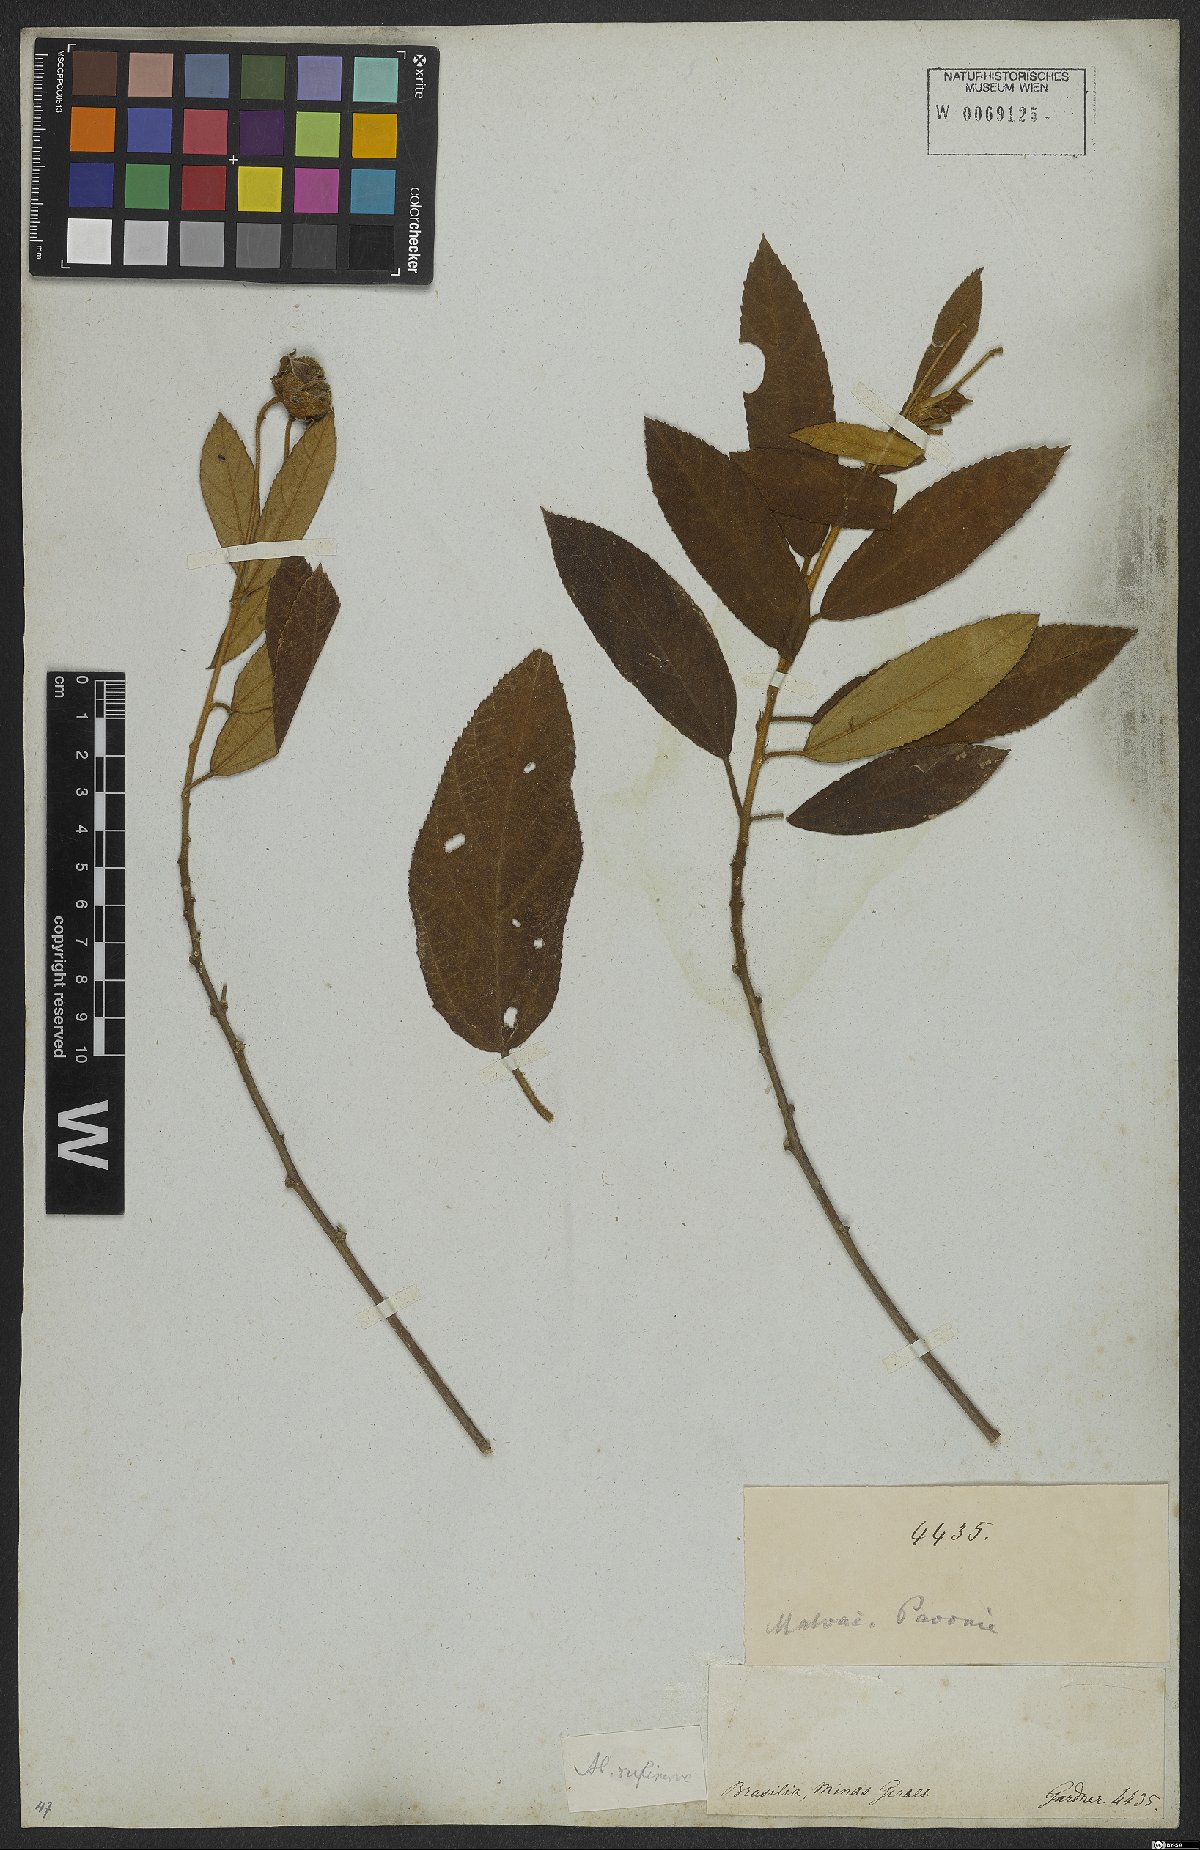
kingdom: Plantae
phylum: Tracheophyta
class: Magnoliopsida
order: Malvales
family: Malvaceae
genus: Callianthe
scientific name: Callianthe rufinerva
